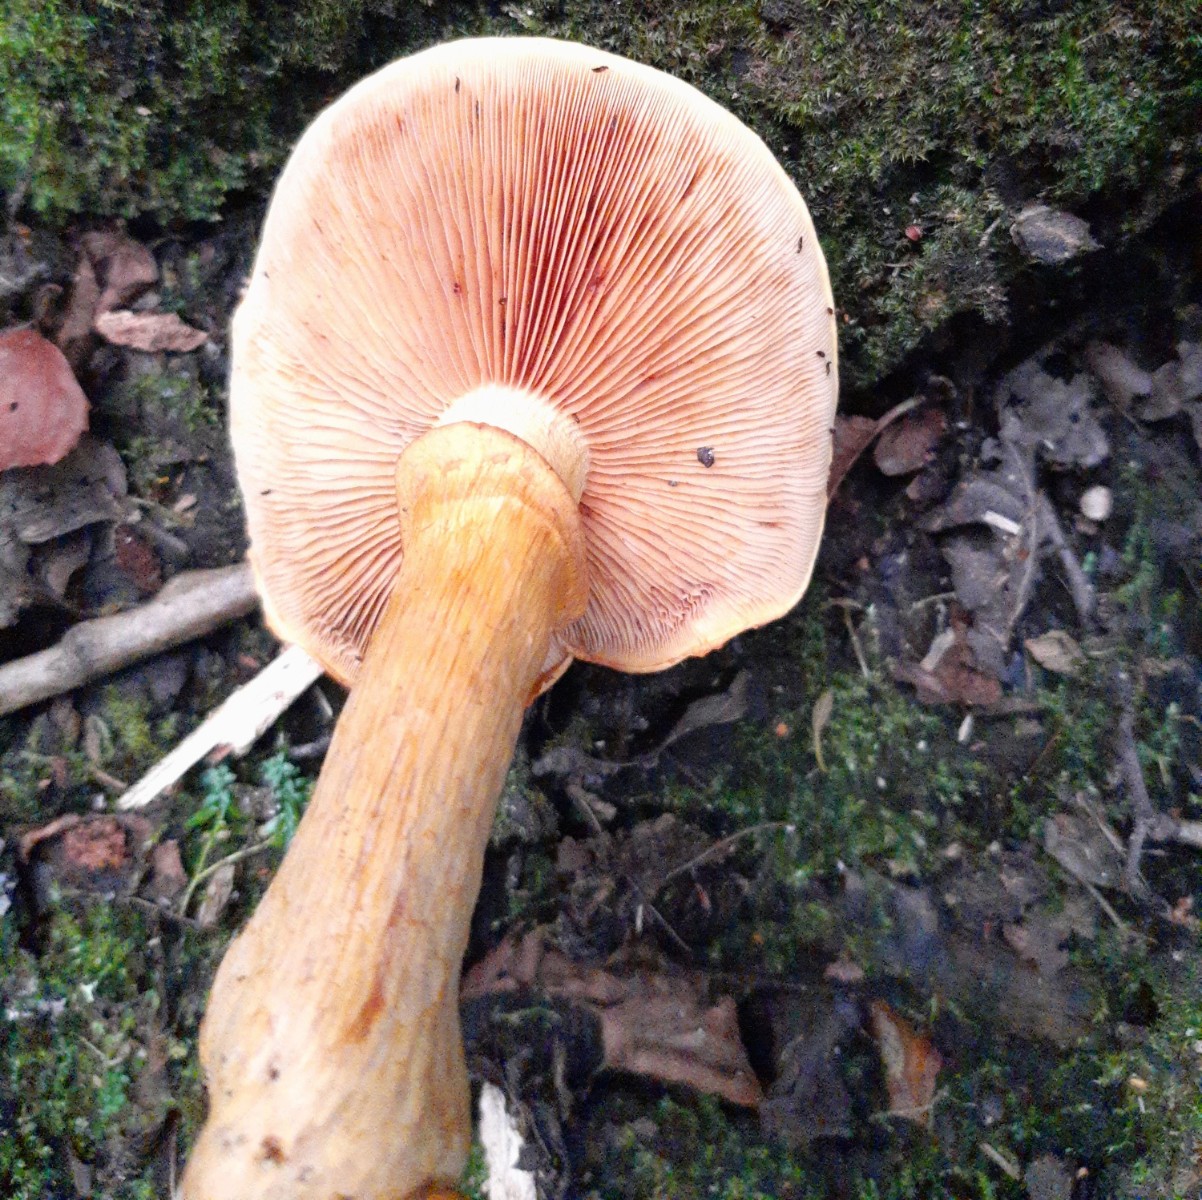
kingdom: Fungi
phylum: Basidiomycota
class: Agaricomycetes
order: Agaricales
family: Hymenogastraceae
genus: Gymnopilus
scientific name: Gymnopilus spectabilis
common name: fibret flammehat
